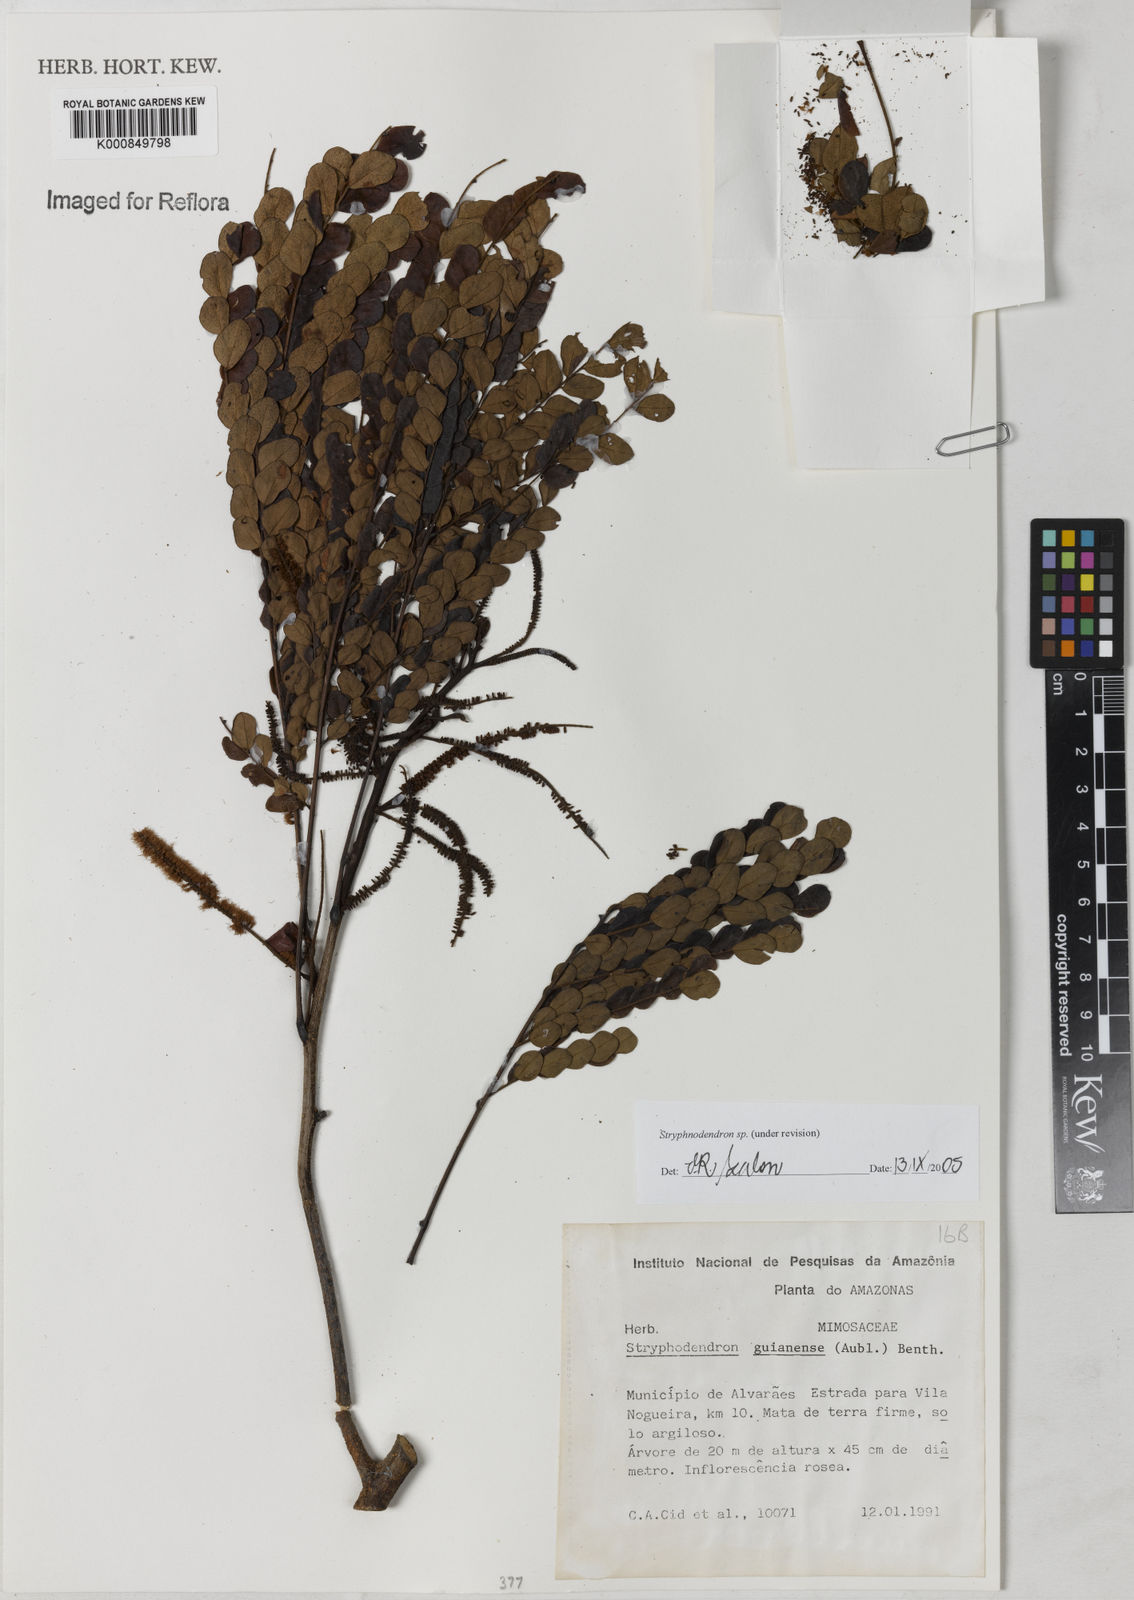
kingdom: Plantae
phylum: Tracheophyta
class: Magnoliopsida
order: Fabales
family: Fabaceae
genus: Stryphnodendron
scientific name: Stryphnodendron
